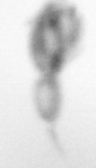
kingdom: Animalia
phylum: Arthropoda
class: Copepoda
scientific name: Copepoda
